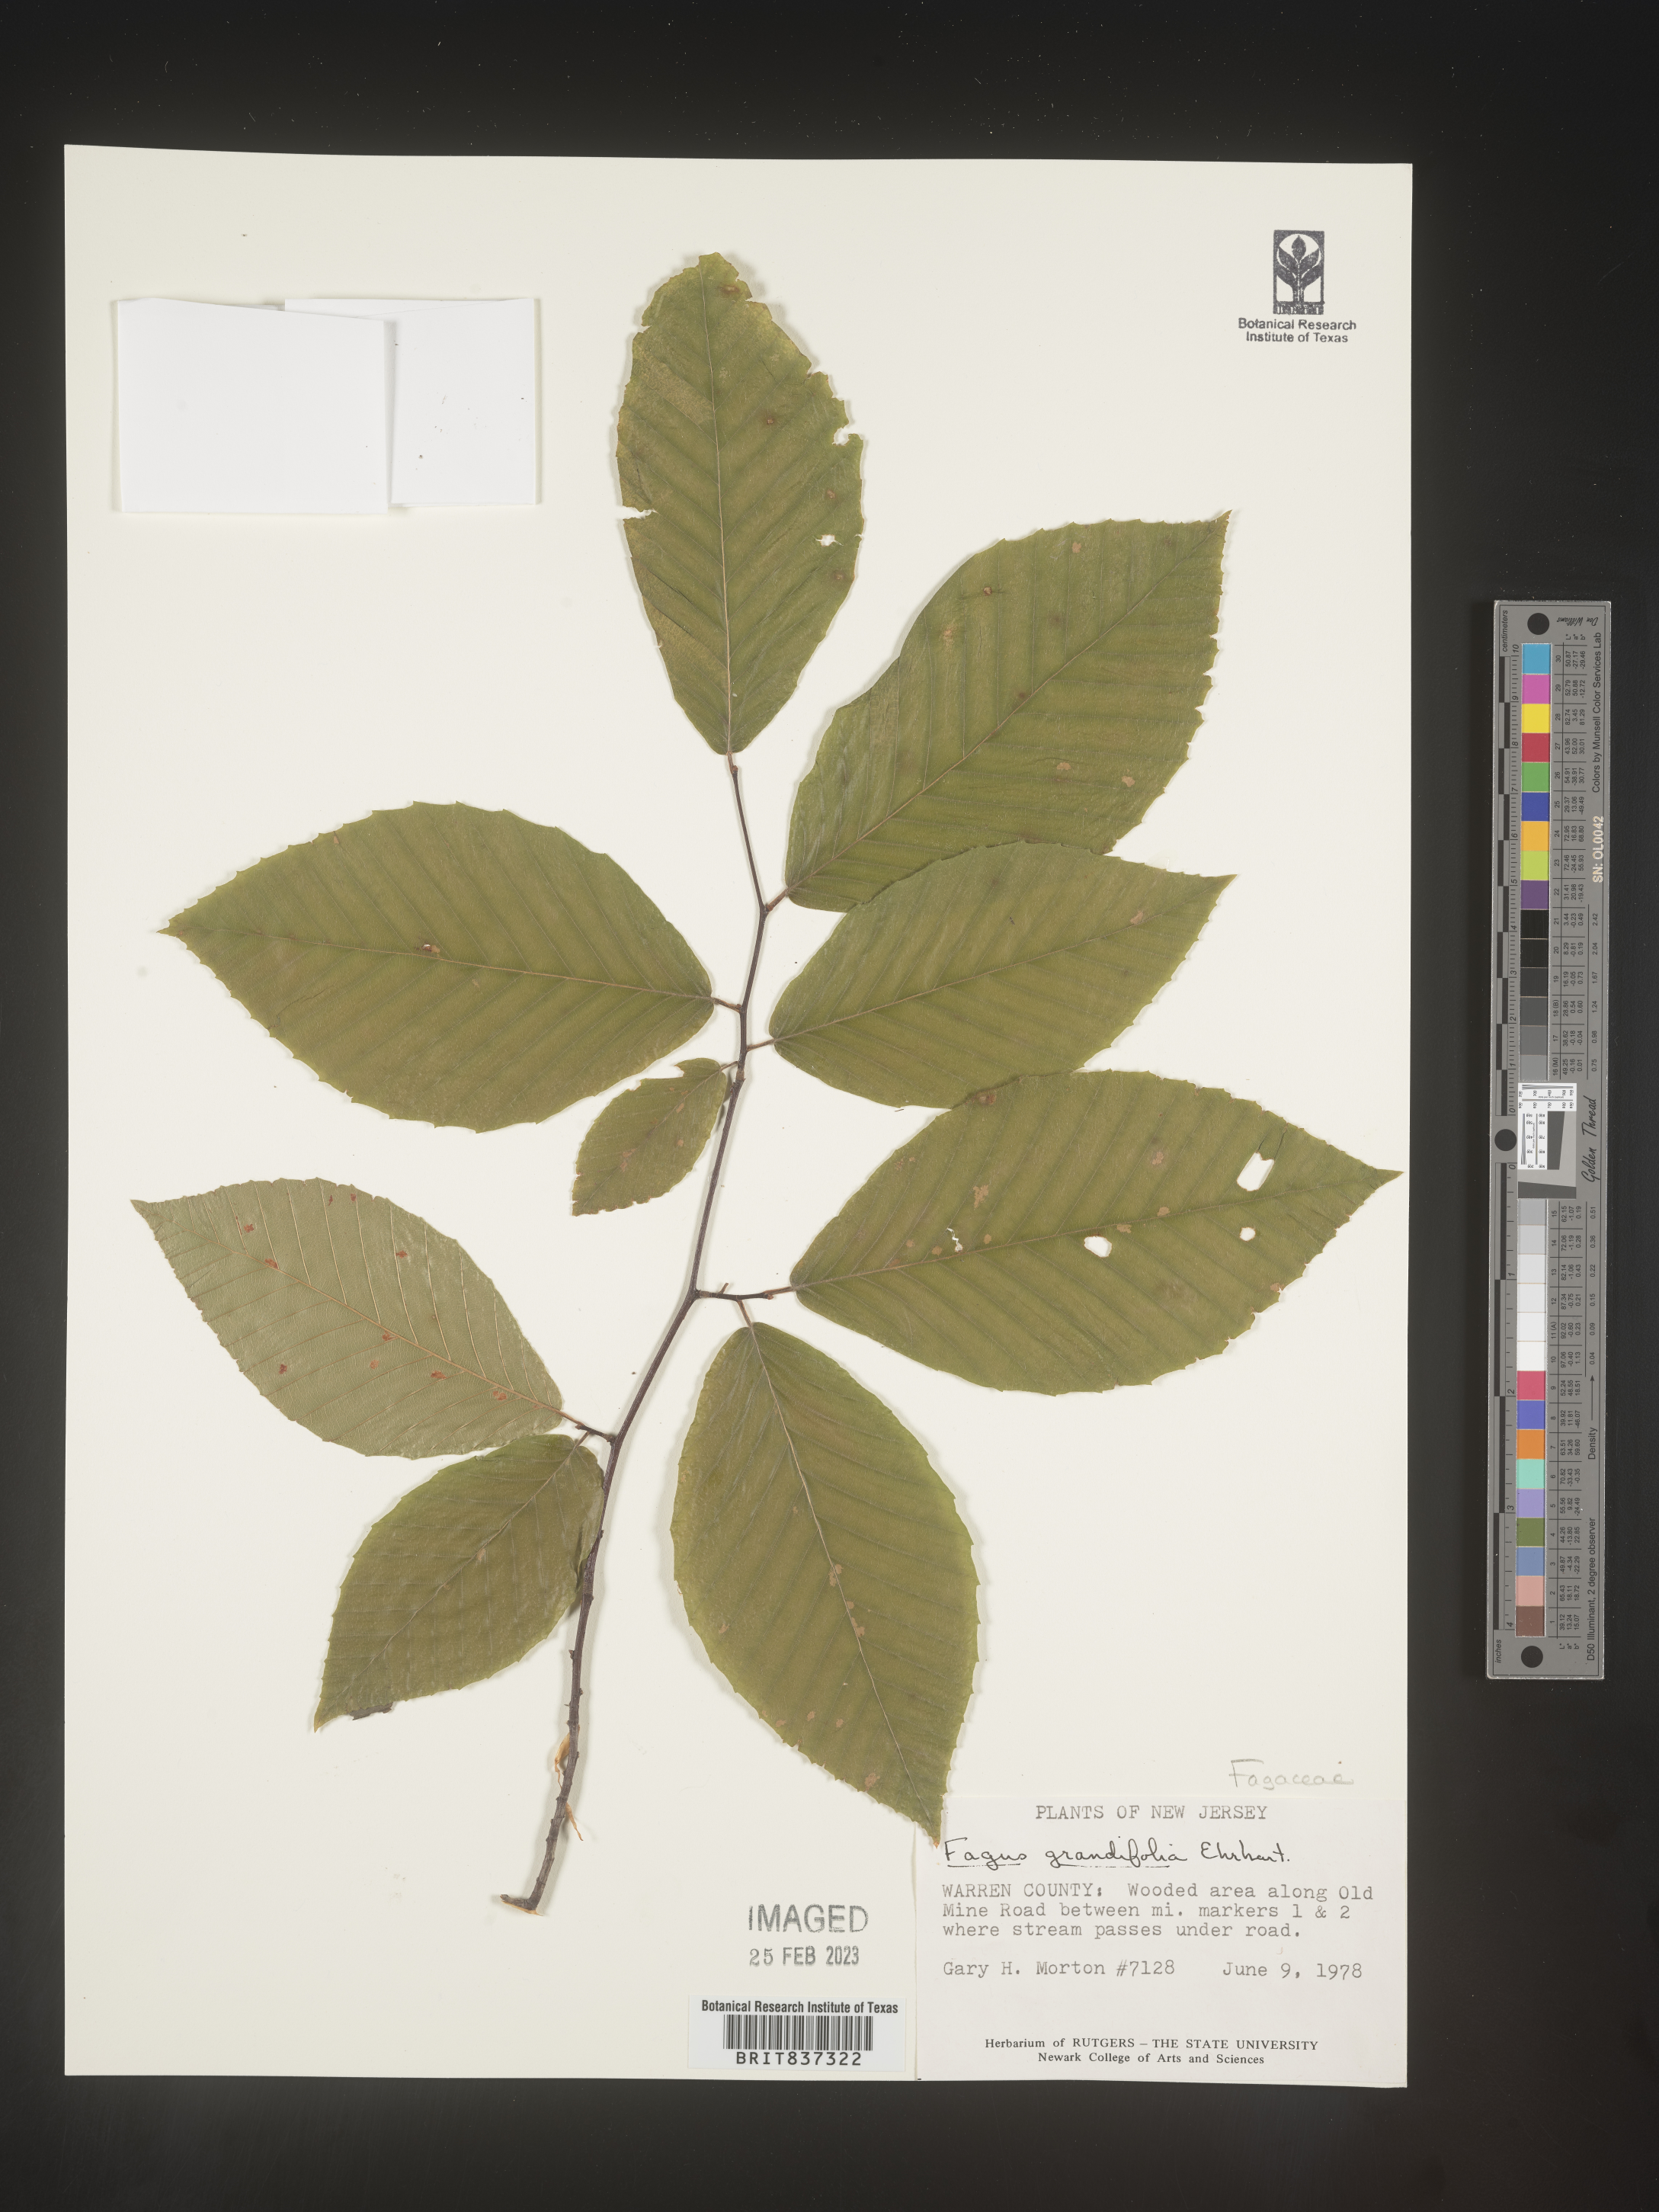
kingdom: Plantae
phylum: Tracheophyta
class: Magnoliopsida
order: Fagales
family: Fagaceae
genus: Fagus
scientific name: Fagus grandifolia
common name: American beech
